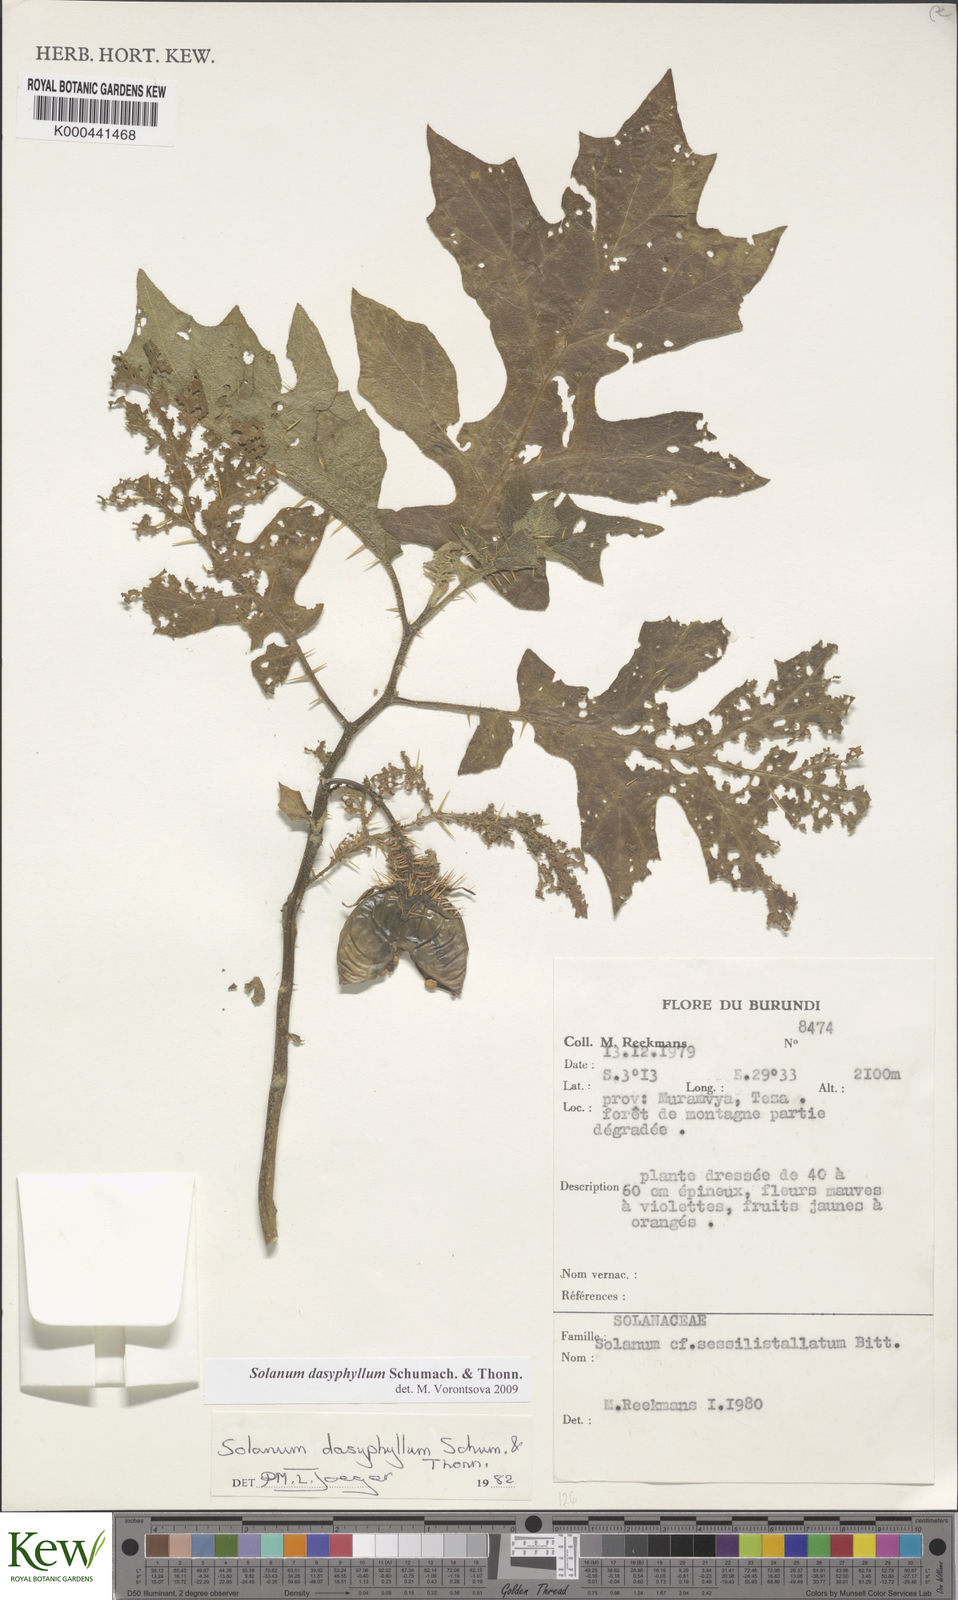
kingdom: Plantae
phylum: Tracheophyta
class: Magnoliopsida
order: Solanales
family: Solanaceae
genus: Solanum
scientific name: Solanum dasyphyllum
